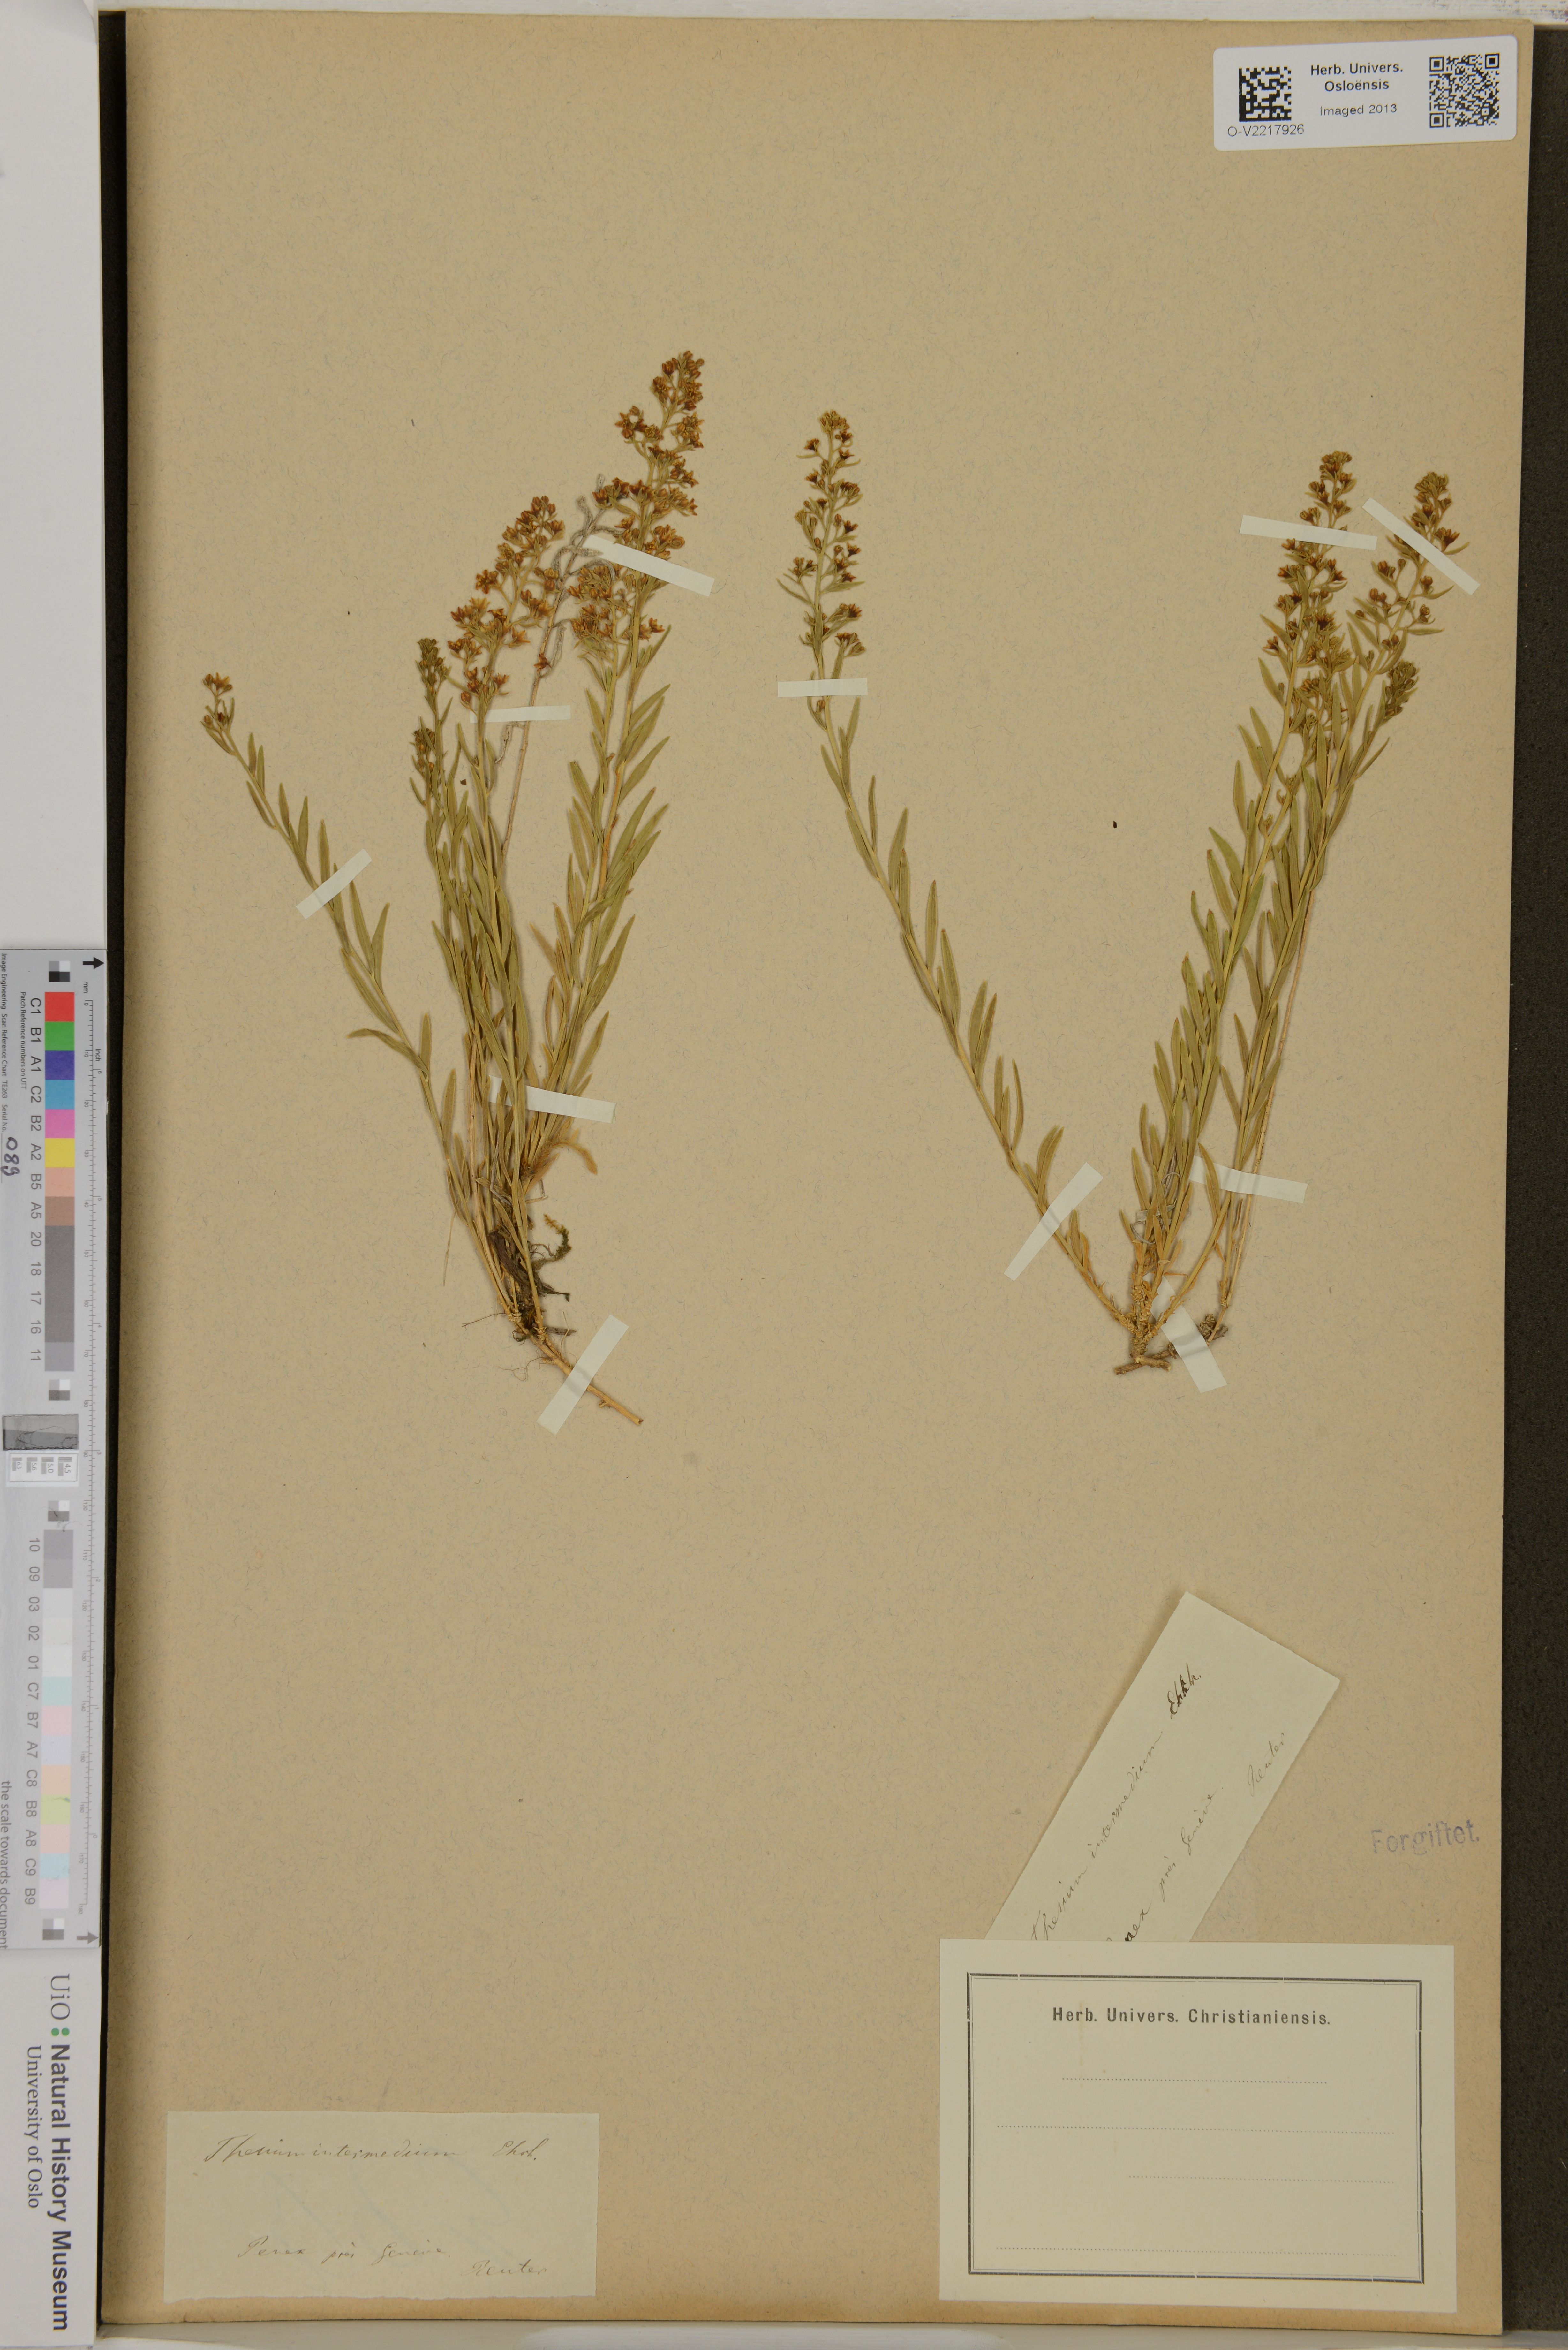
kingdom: Plantae
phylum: Tracheophyta
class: Magnoliopsida
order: Santalales
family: Thesiaceae
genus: Thesium
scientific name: Thesium
